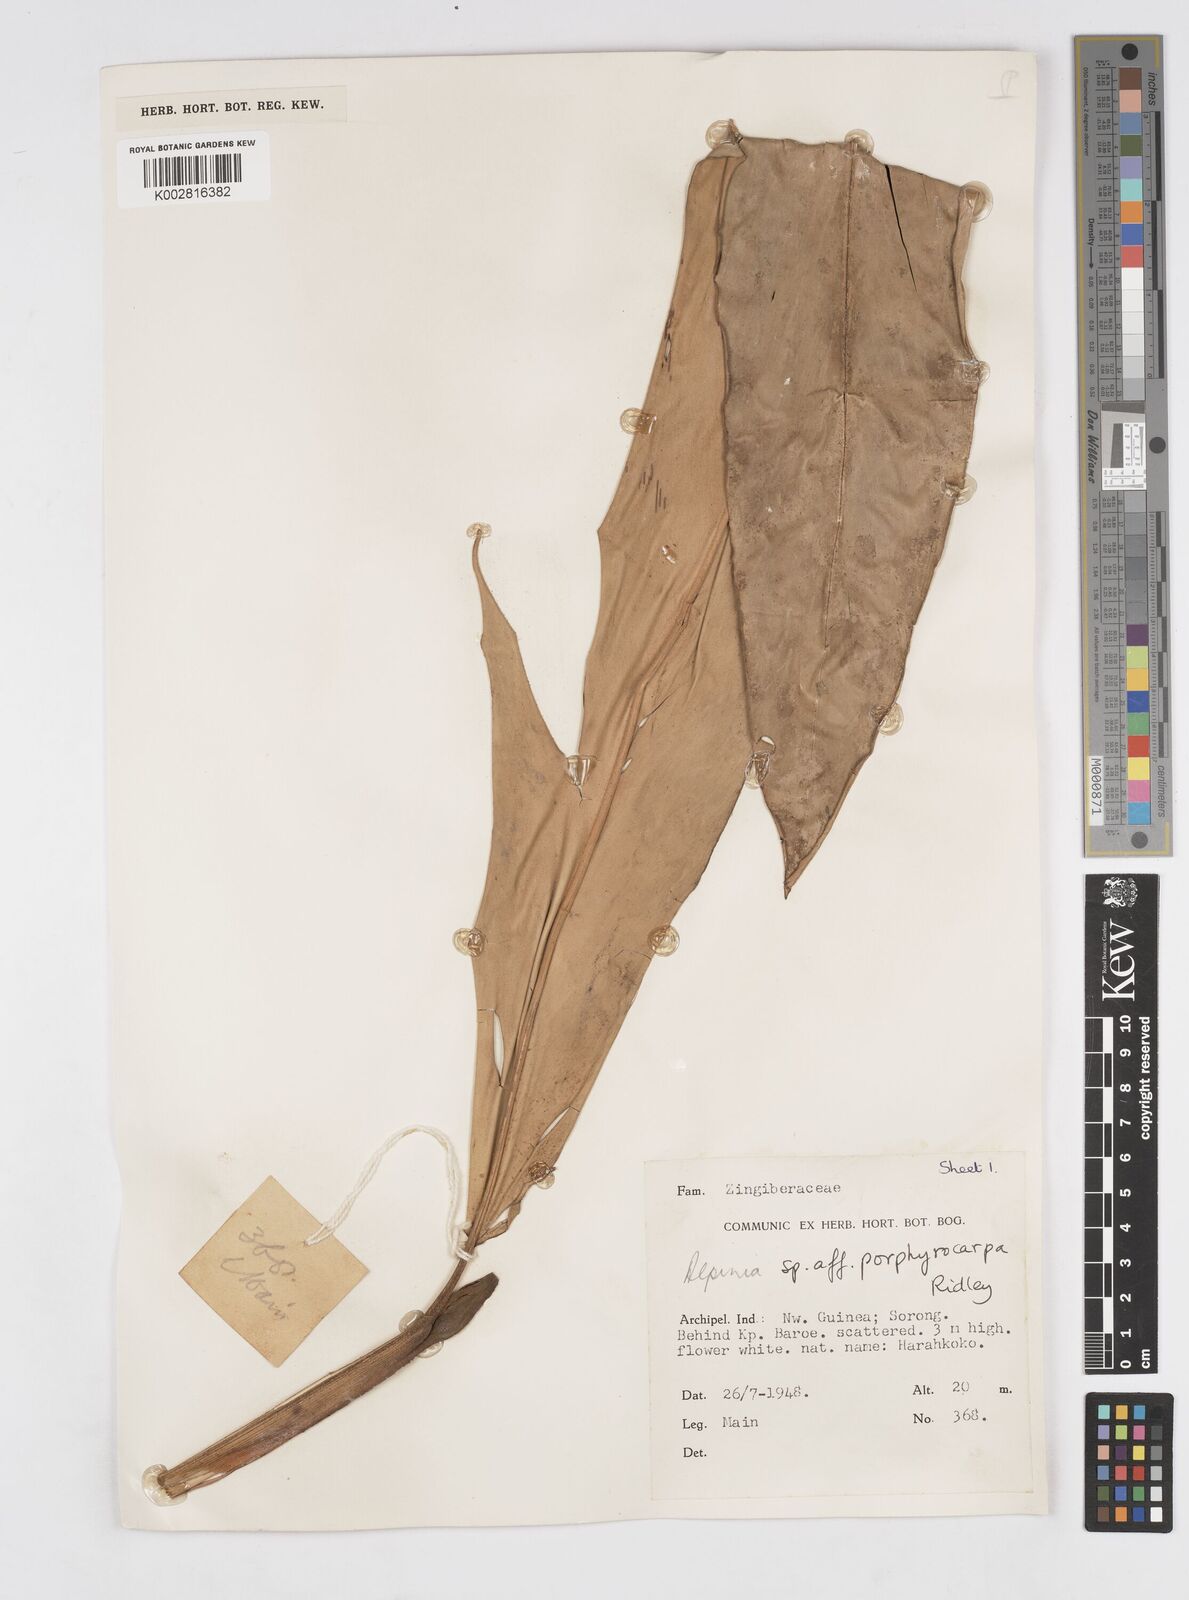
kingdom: Plantae
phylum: Tracheophyta
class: Liliopsida
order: Zingiberales
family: Zingiberaceae
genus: Alpinia
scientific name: Alpinia porphyrocarpa
